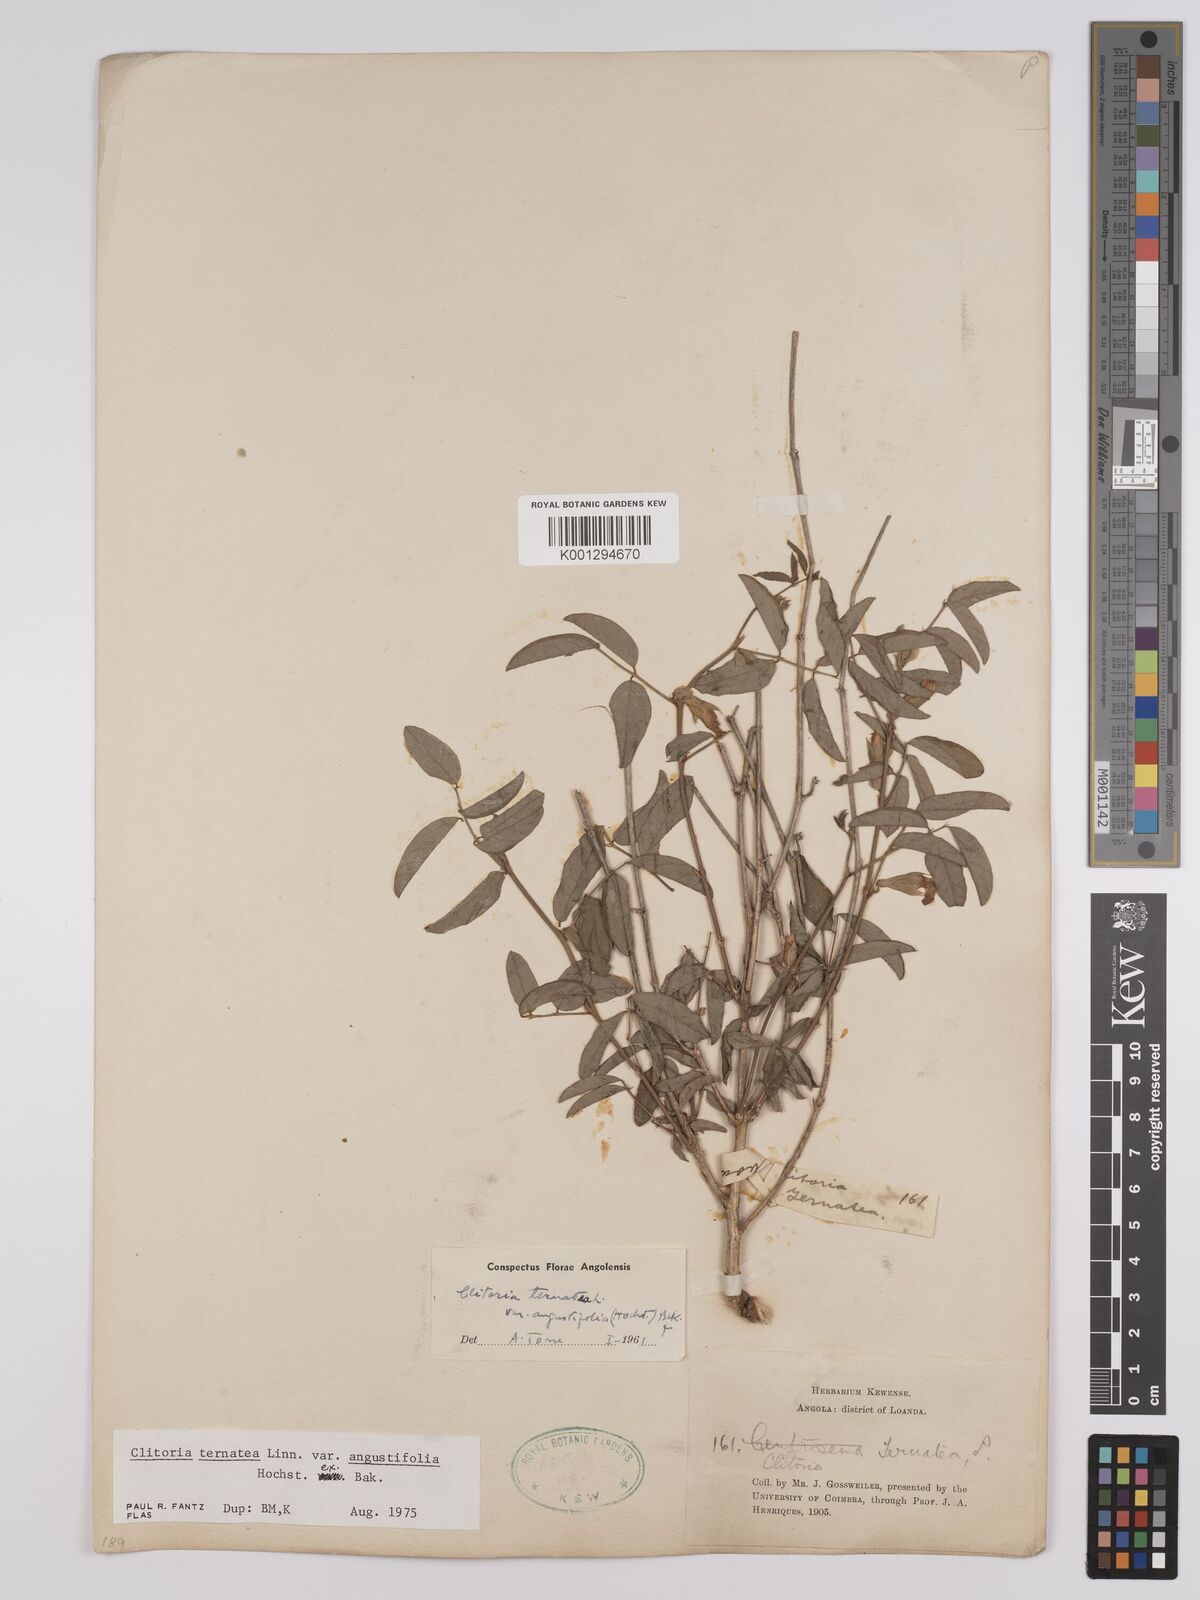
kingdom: Plantae
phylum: Tracheophyta
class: Magnoliopsida
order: Fabales
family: Fabaceae
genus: Clitoria
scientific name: Clitoria ternatea
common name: Asian pigeonwings
